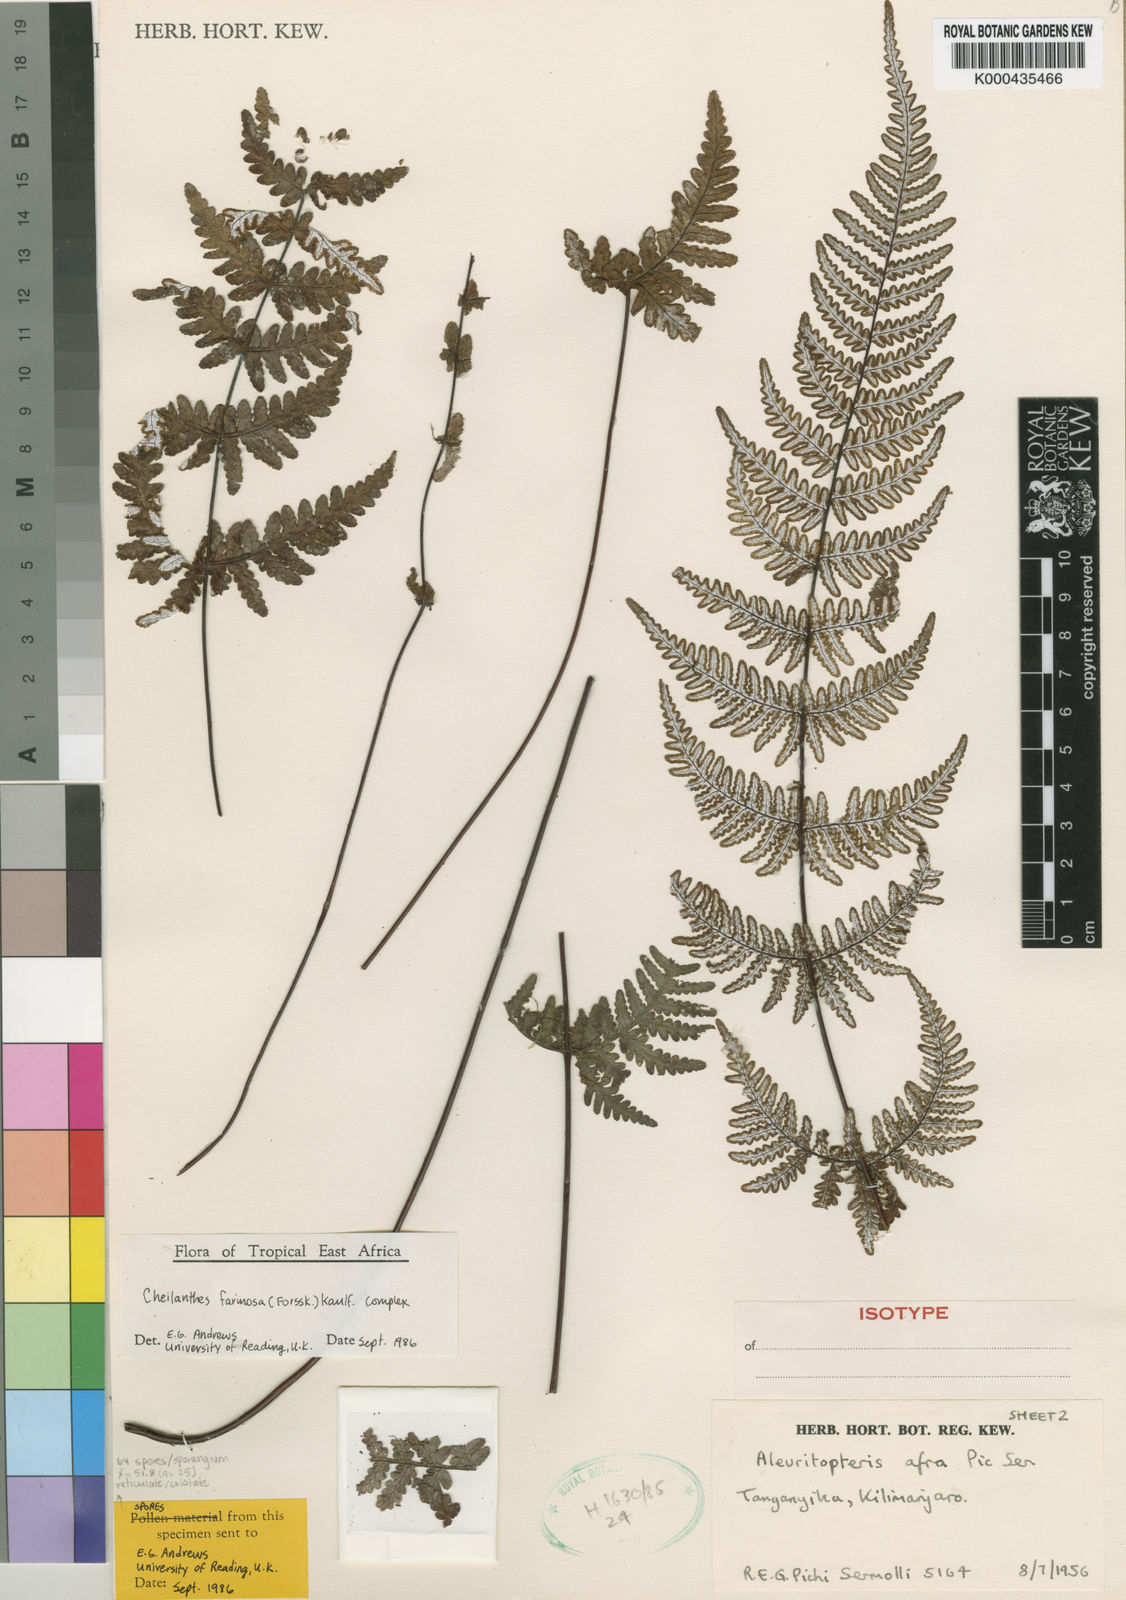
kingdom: Plantae
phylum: Tracheophyta
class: Polypodiopsida
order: Polypodiales
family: Pteridaceae
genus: Aleuritopteris
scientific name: Aleuritopteris farinosa
